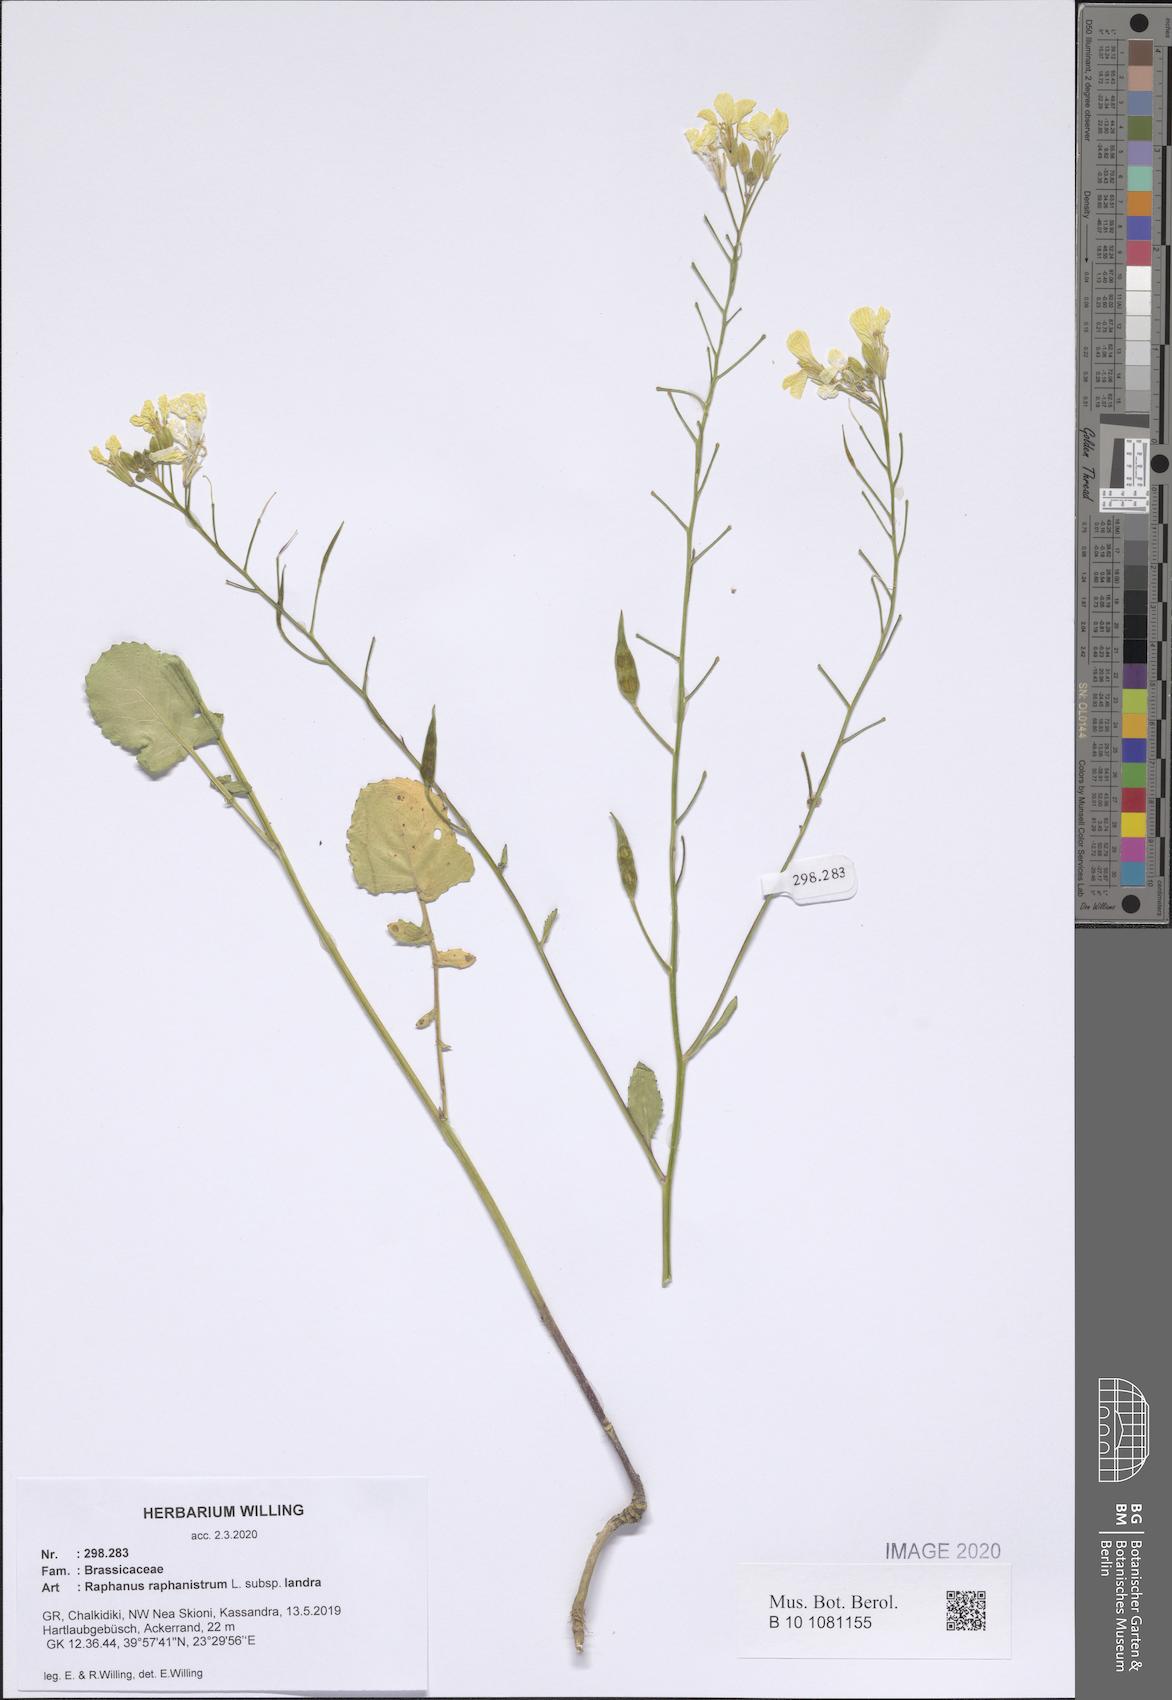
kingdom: Plantae
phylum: Tracheophyta
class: Magnoliopsida
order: Brassicales
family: Brassicaceae
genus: Raphanus
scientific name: Raphanus raphanistrum
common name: Wild radish
